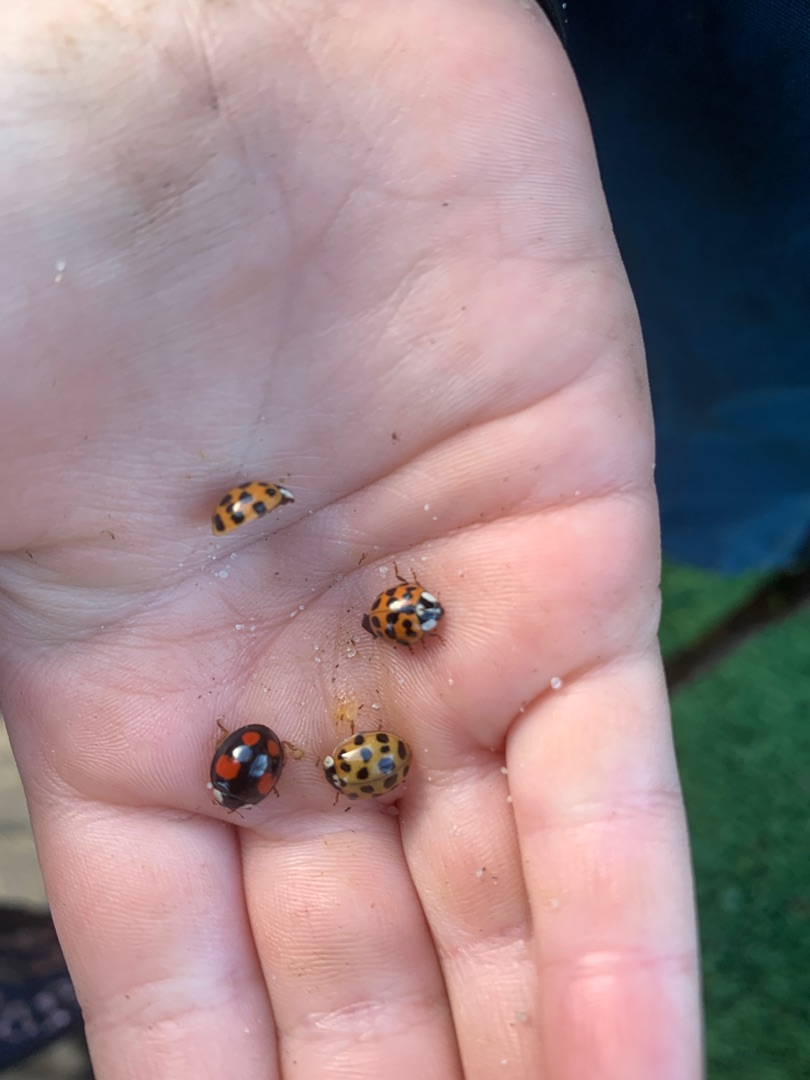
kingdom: Animalia
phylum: Arthropoda
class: Insecta
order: Coleoptera
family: Coccinellidae
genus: Harmonia
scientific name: Harmonia axyridis
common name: Harlekinmariehøne
